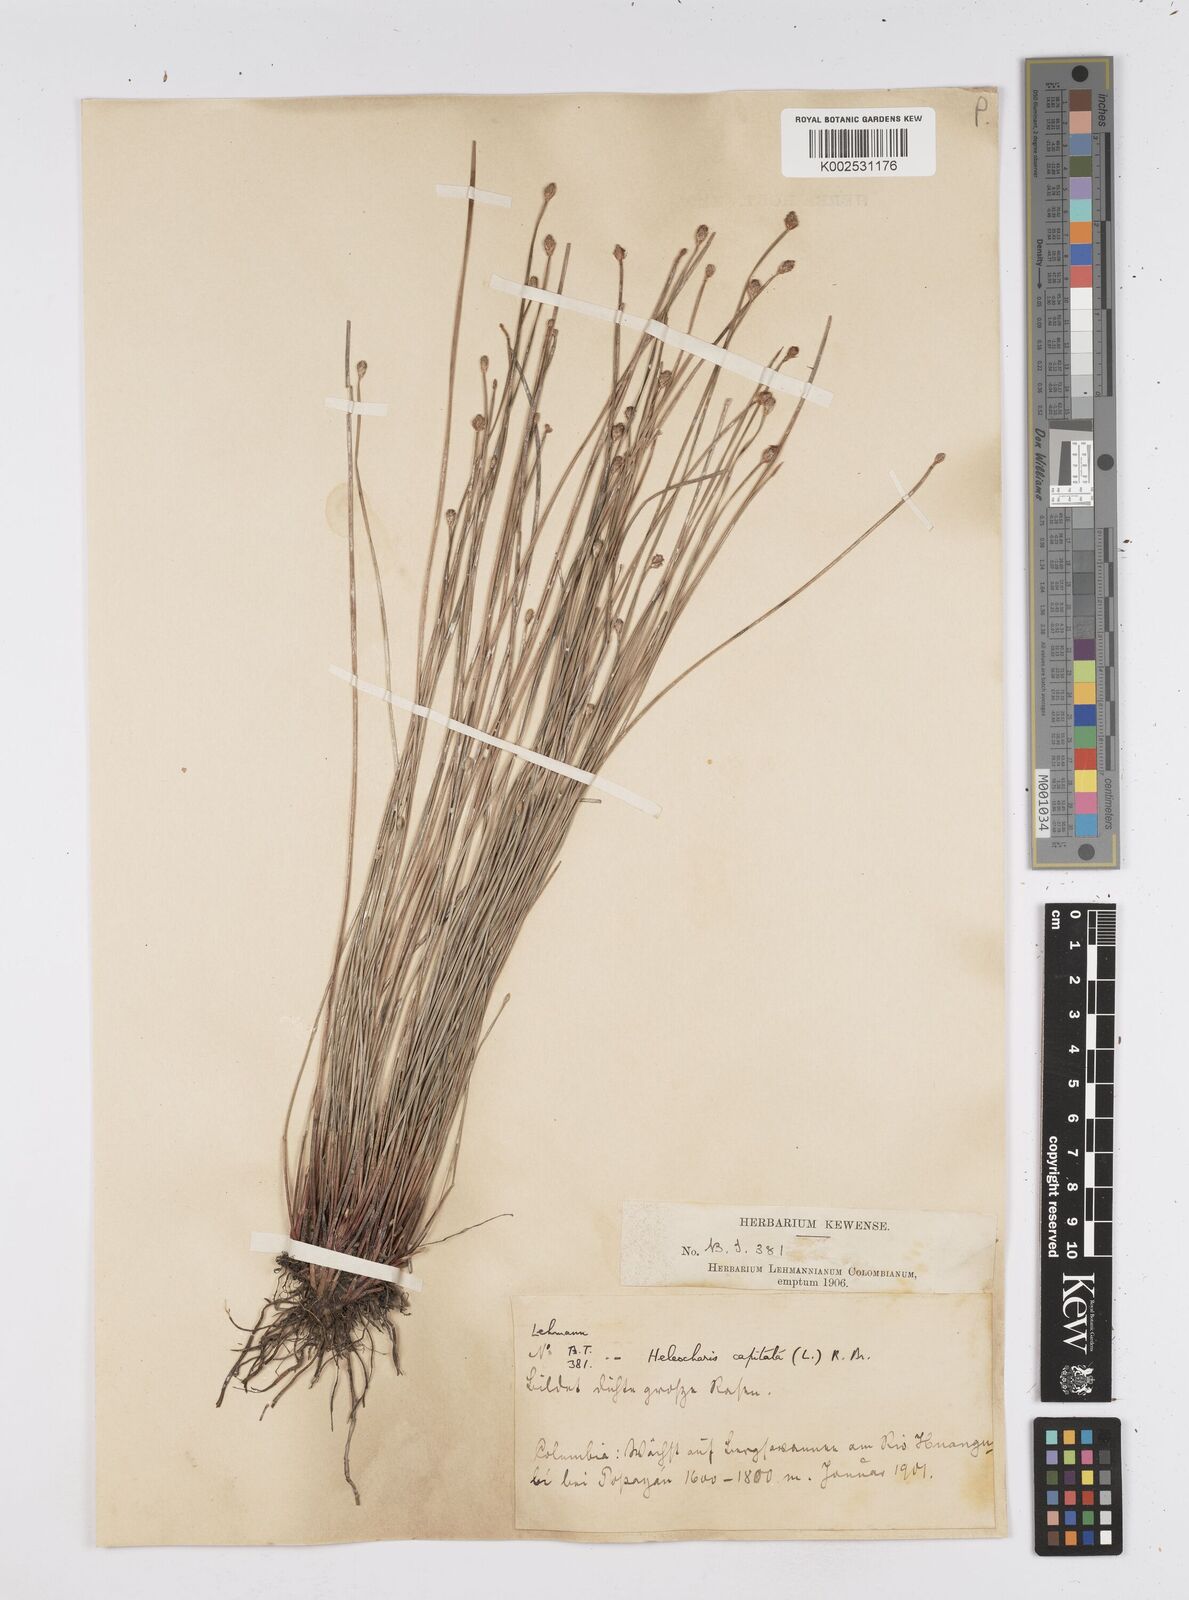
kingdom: Plantae
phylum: Tracheophyta
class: Liliopsida
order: Poales
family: Cyperaceae
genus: Eleocharis
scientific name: Eleocharis geniculata
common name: Canada spikesedge
